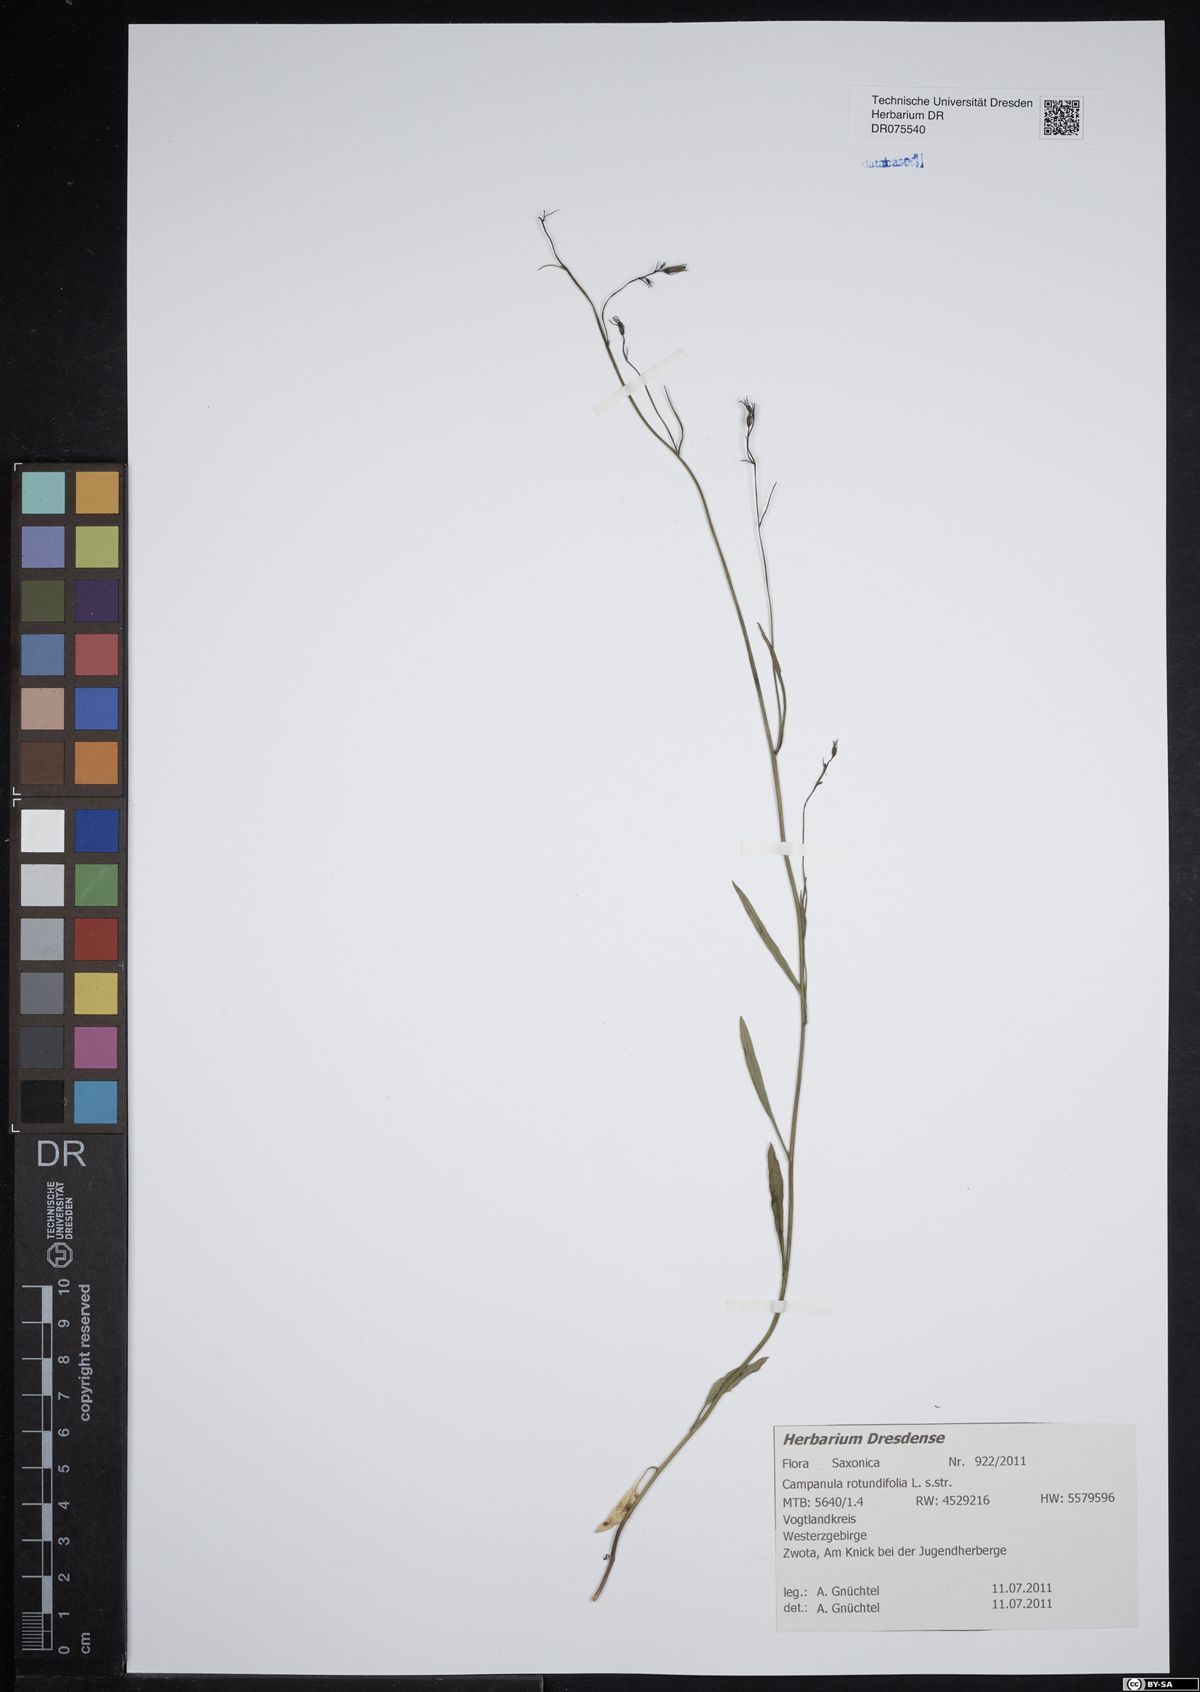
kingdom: Plantae
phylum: Tracheophyta
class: Magnoliopsida
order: Asterales
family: Campanulaceae
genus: Campanula
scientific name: Campanula rotundifolia
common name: Harebell
